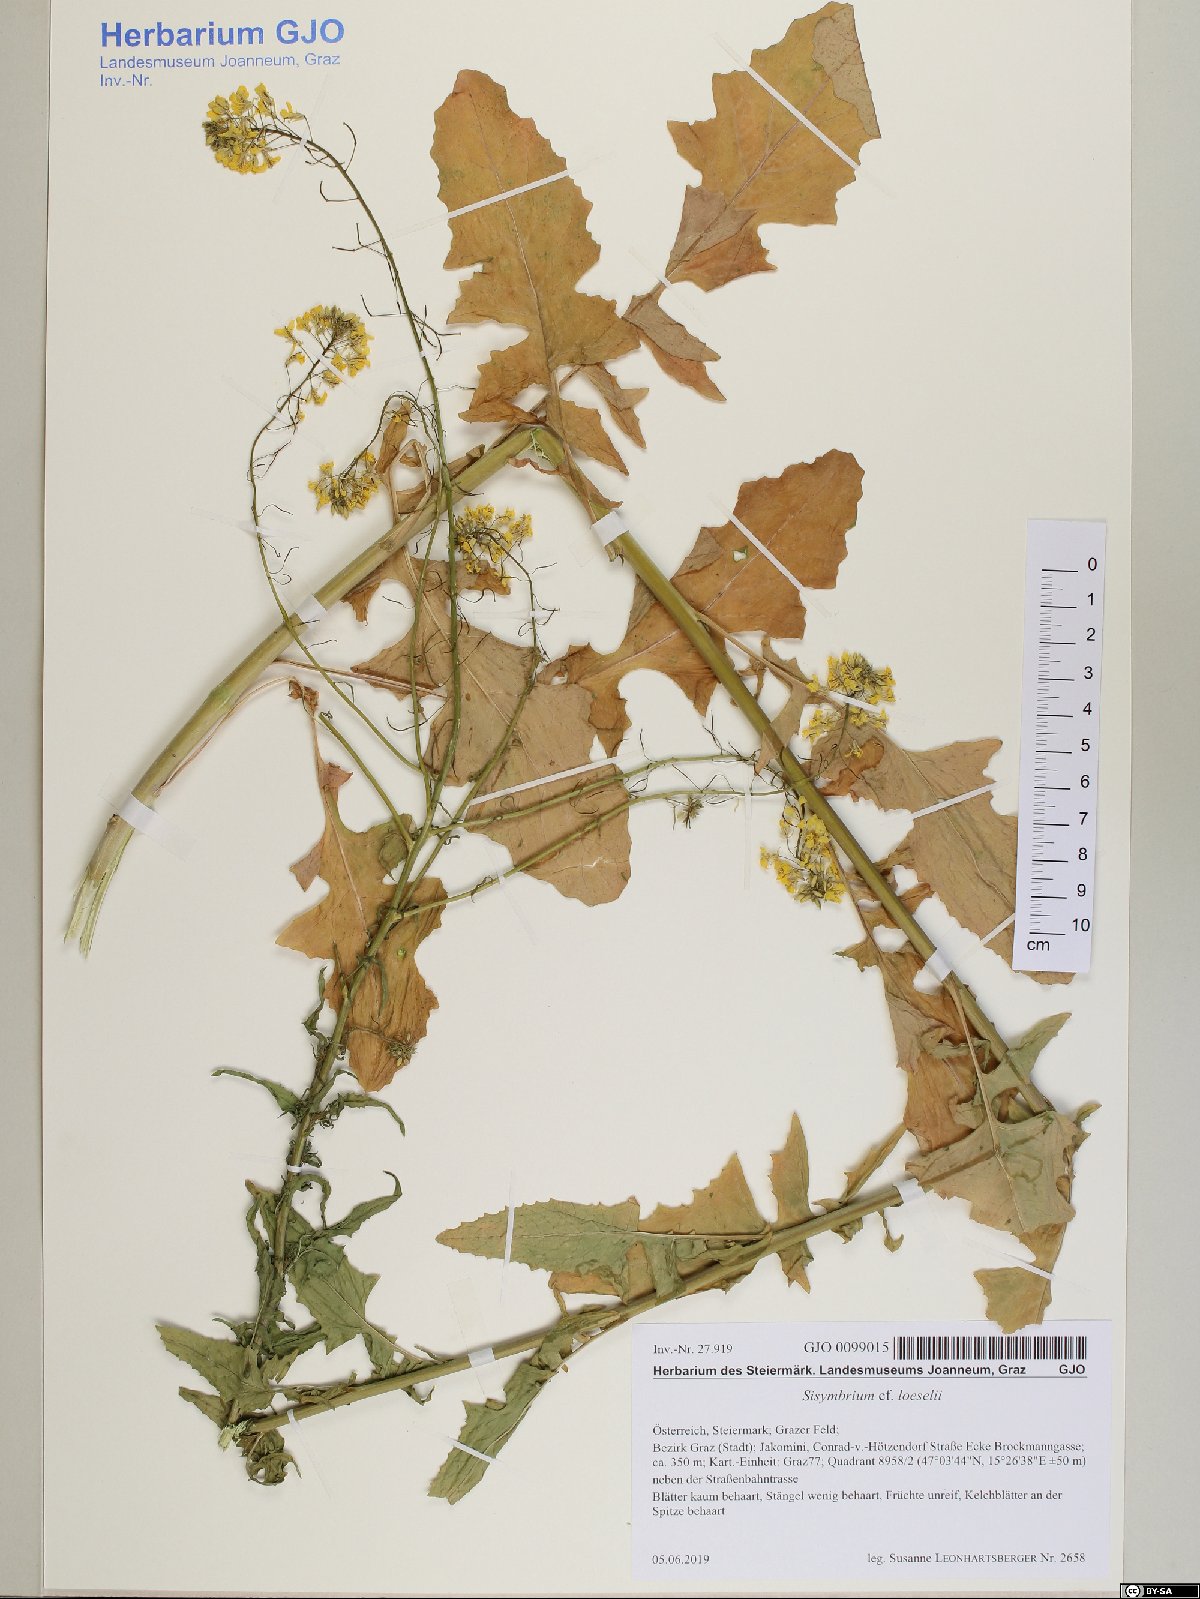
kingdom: Plantae
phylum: Tracheophyta
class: Magnoliopsida
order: Brassicales
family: Brassicaceae
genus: Sisymbrium
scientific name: Sisymbrium loeselii
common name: False london-rocket
